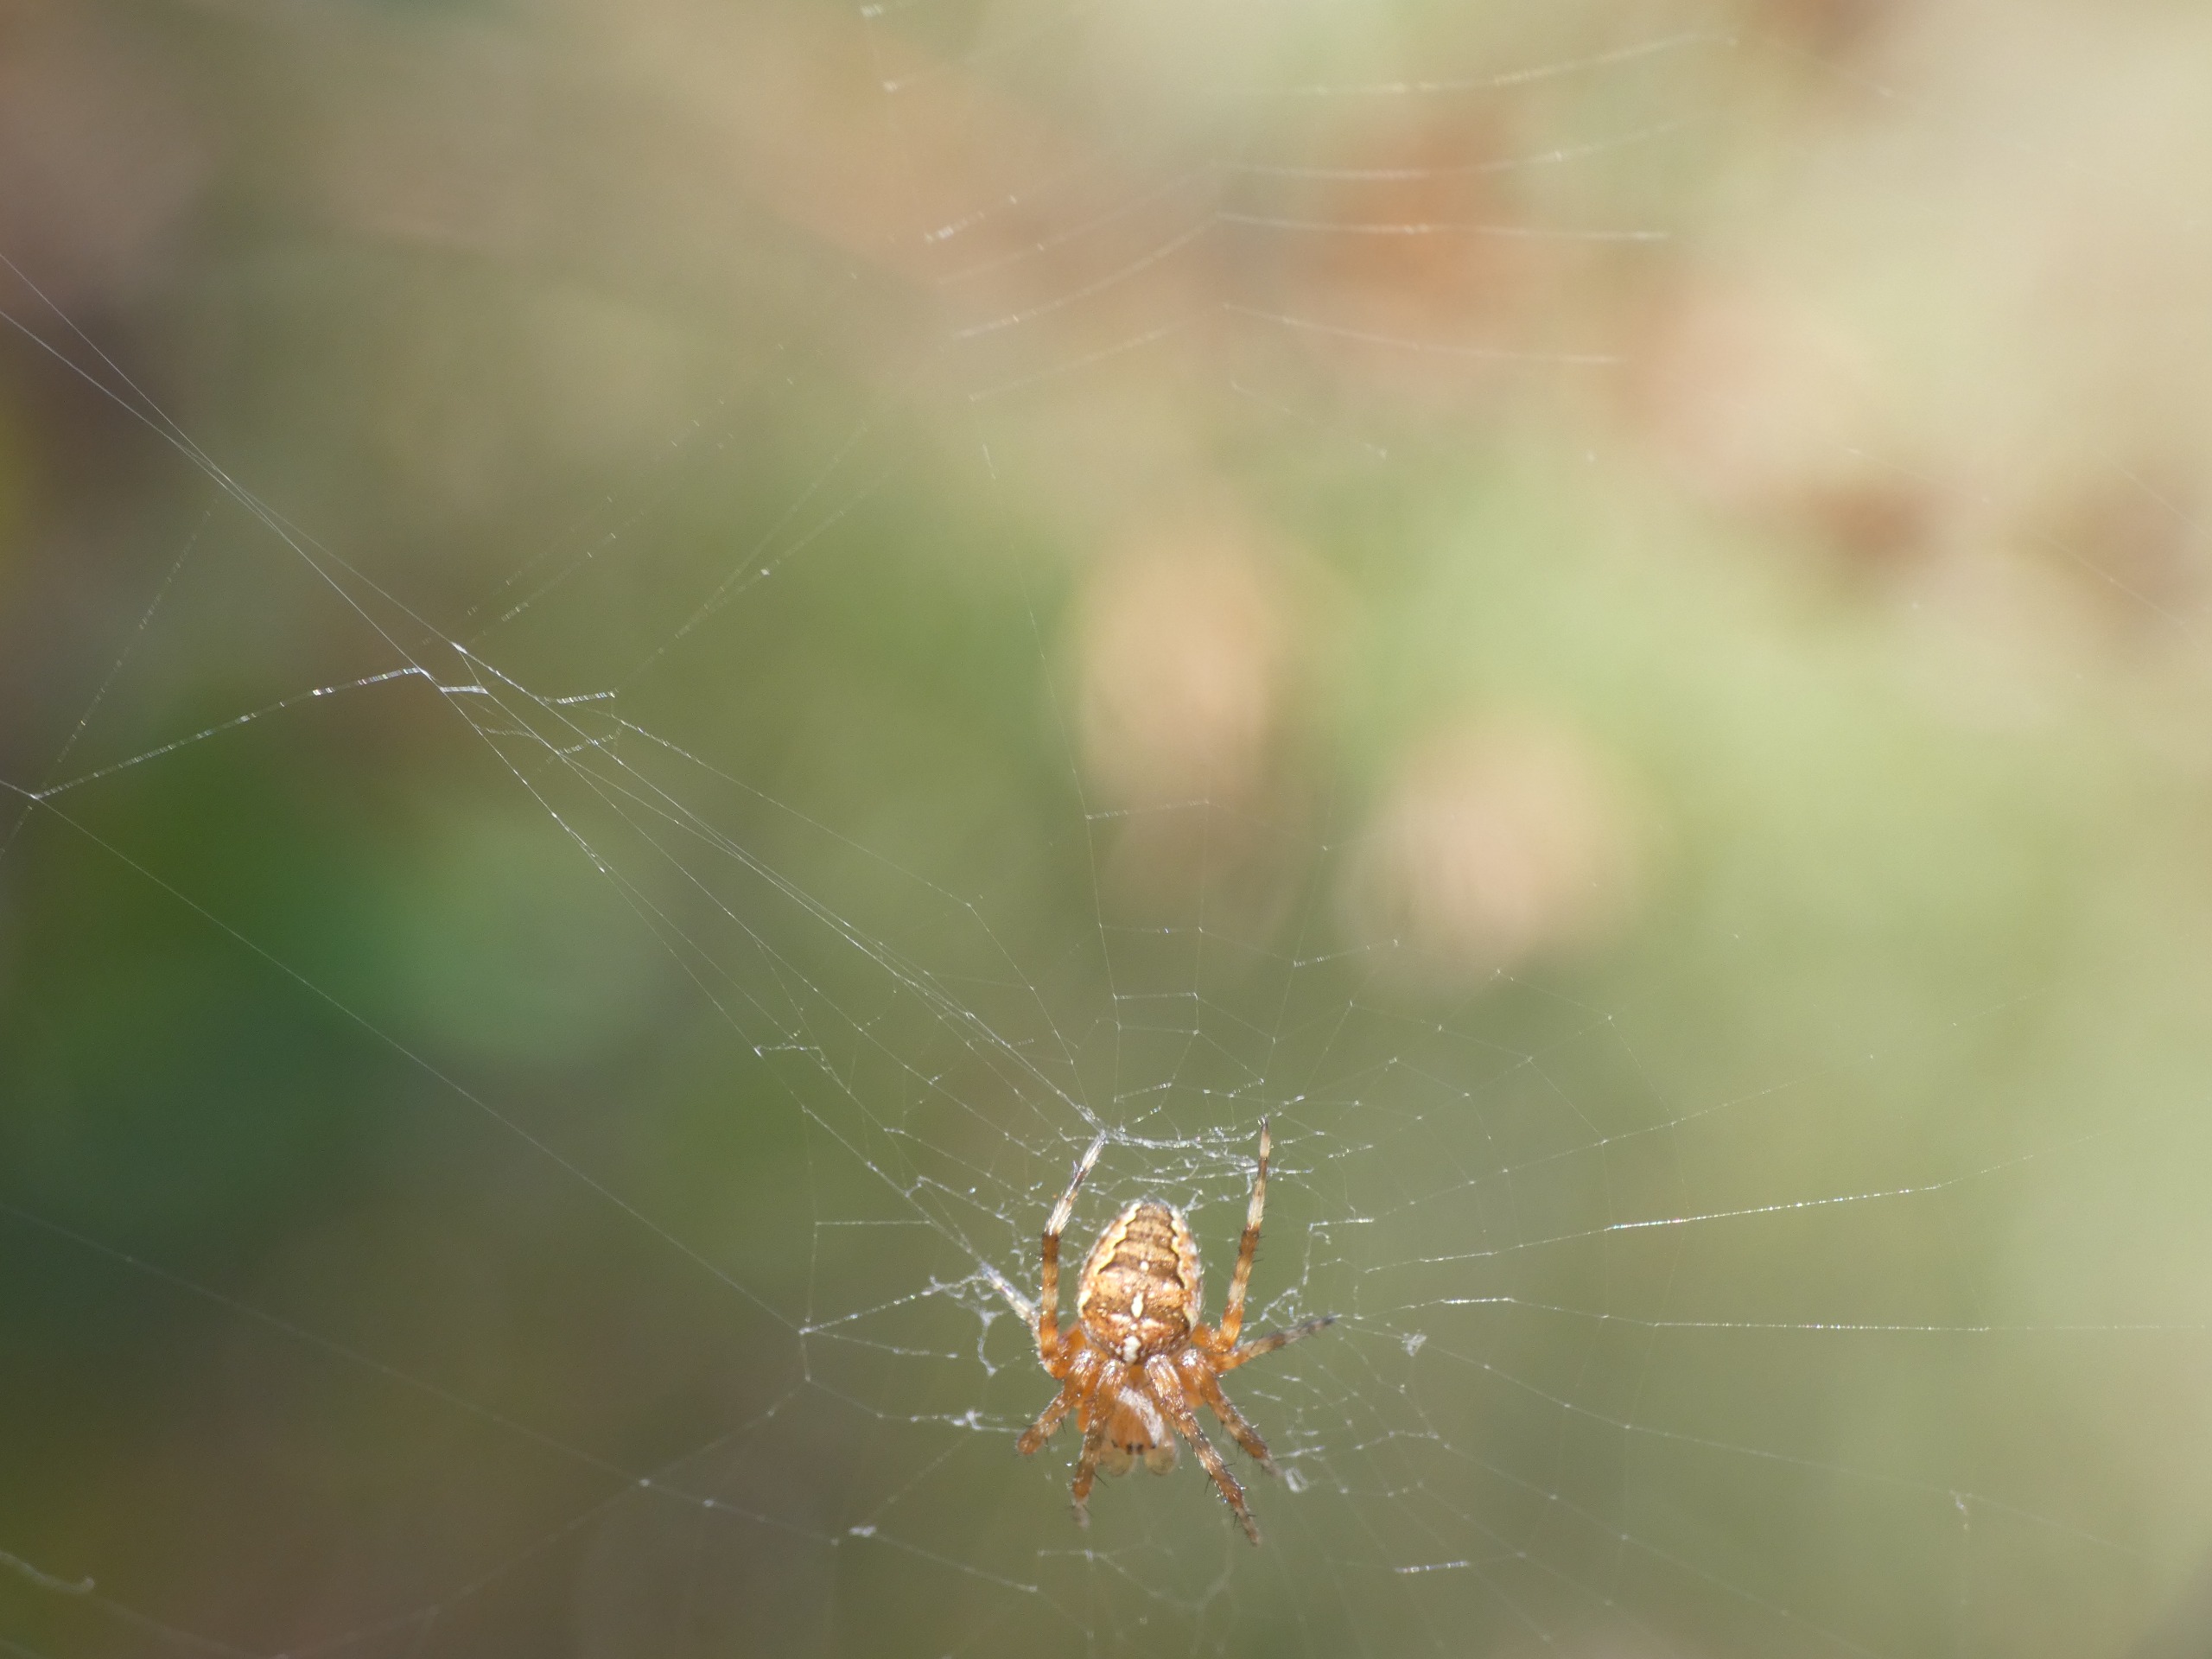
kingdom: Animalia
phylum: Arthropoda
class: Arachnida
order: Araneae
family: Araneidae
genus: Araneus
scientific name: Araneus diadematus
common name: Korsedderkop
